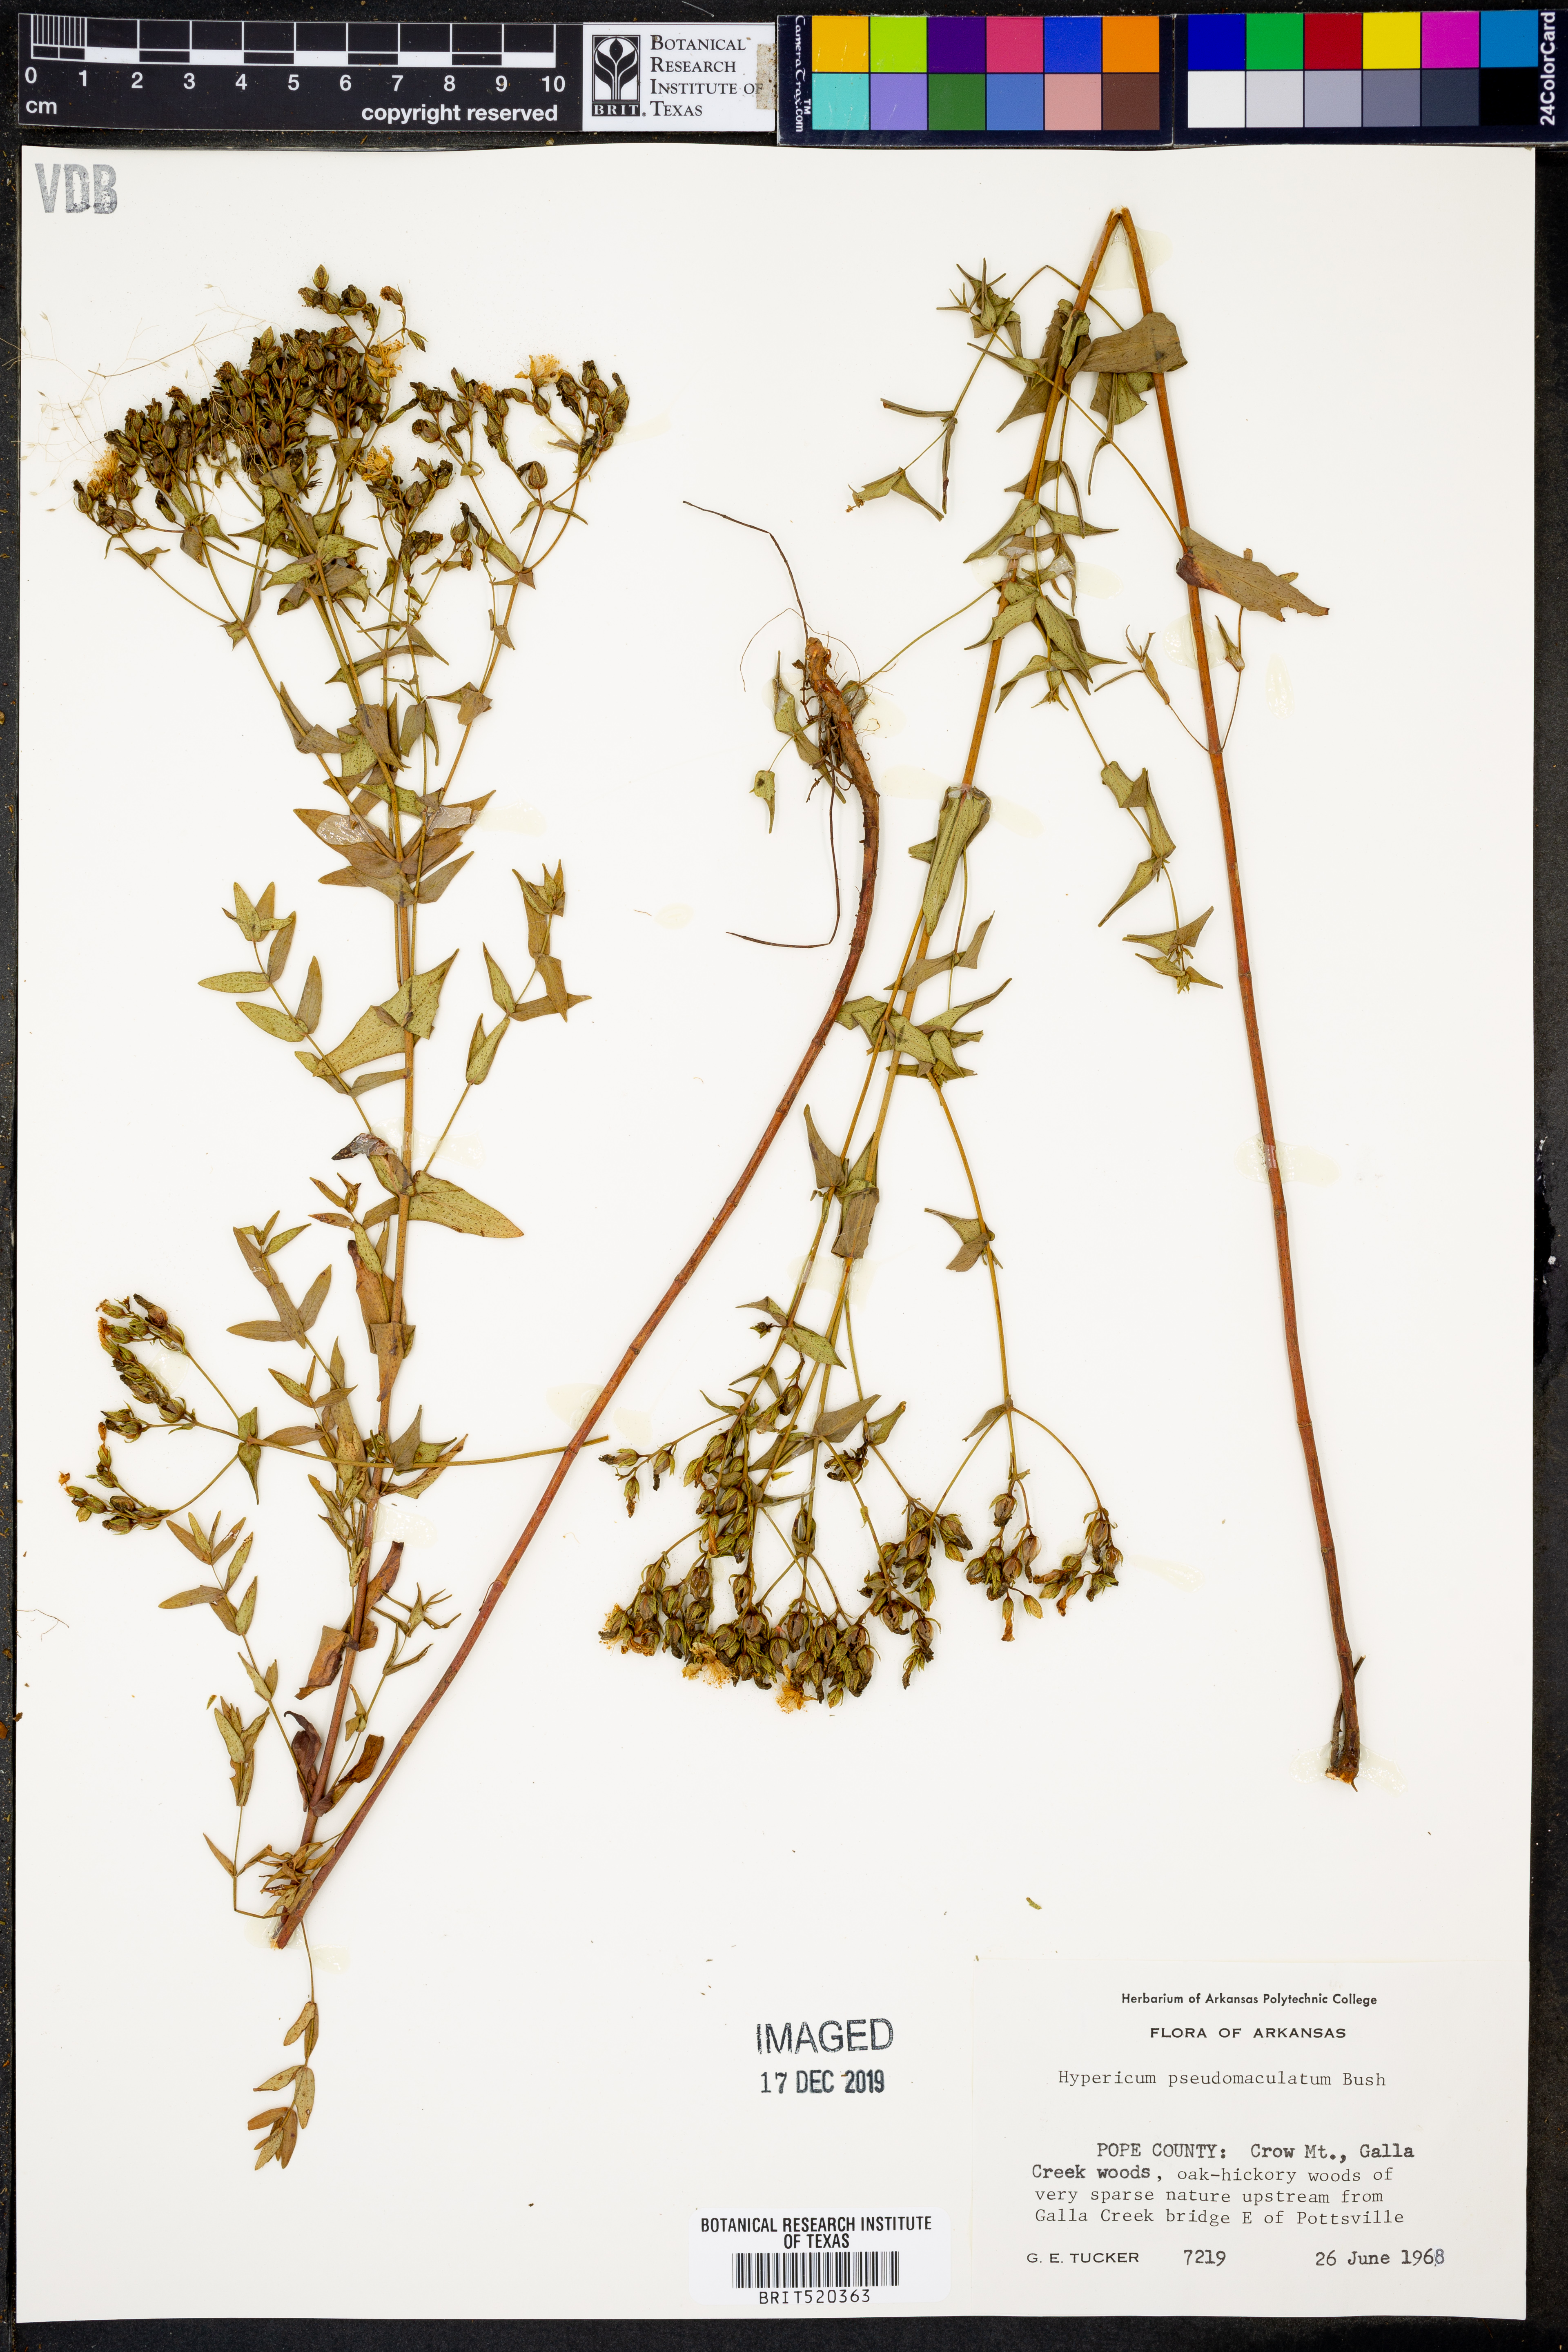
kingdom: Plantae
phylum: Tracheophyta
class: Magnoliopsida
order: Malpighiales
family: Hypericaceae
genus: Hypericum
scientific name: Hypericum pseudomaculatum
